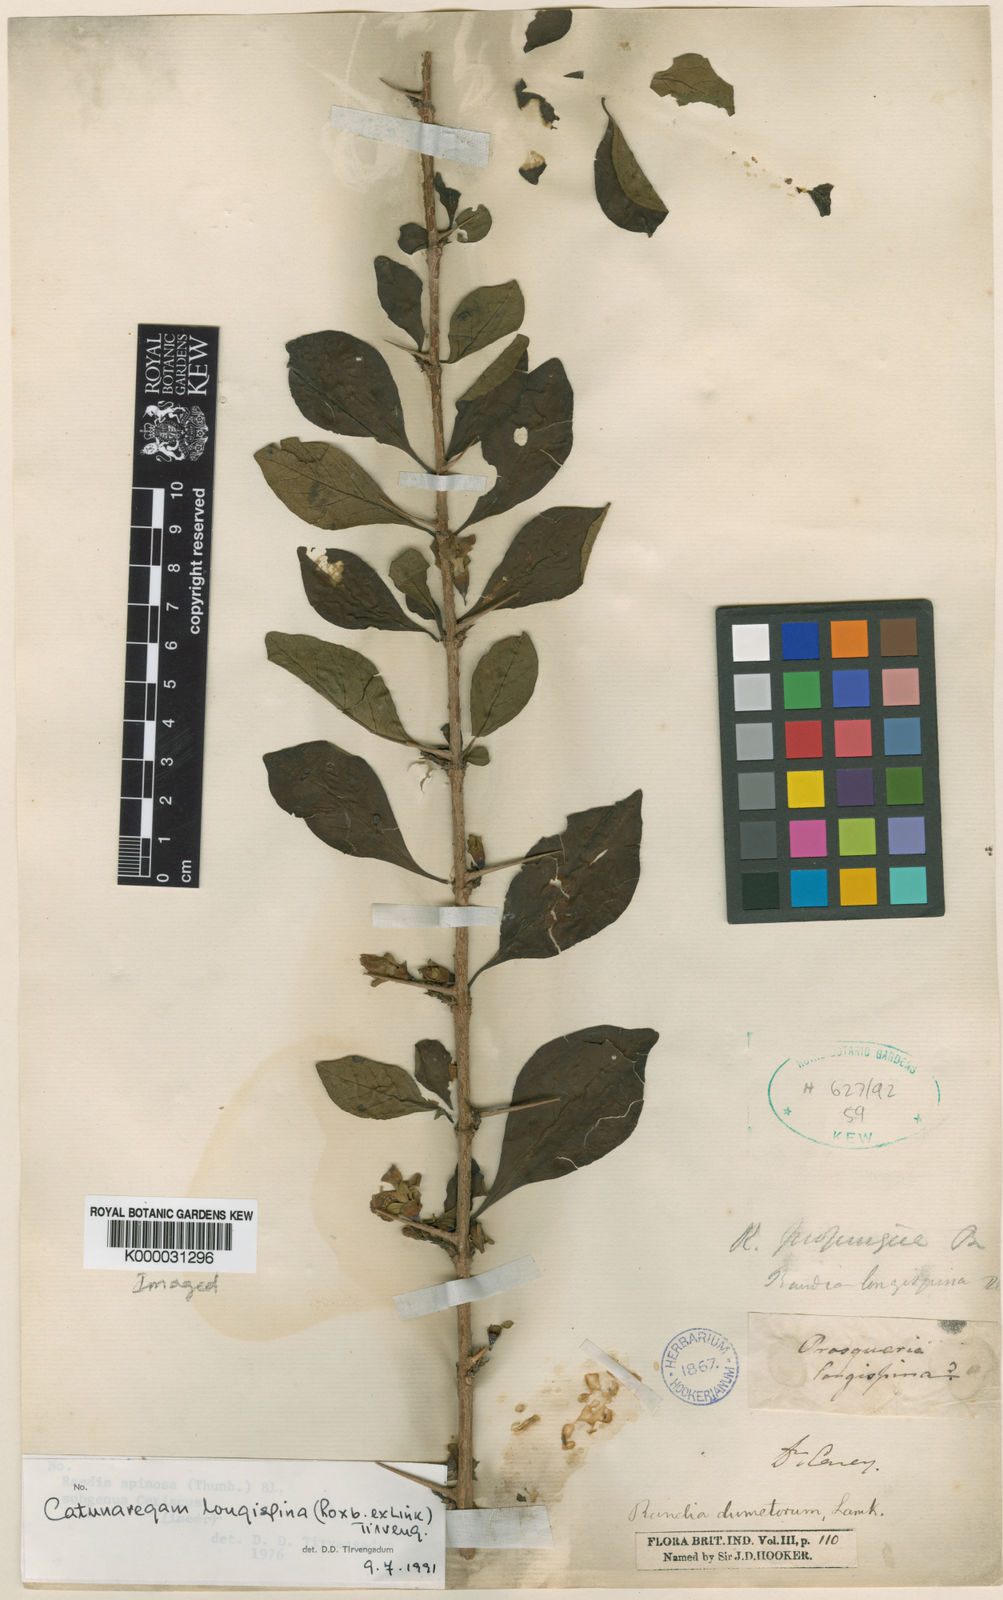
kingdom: Plantae
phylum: Tracheophyta
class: Magnoliopsida
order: Gentianales
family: Rubiaceae
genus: Catunaregam
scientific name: Catunaregam longispina
